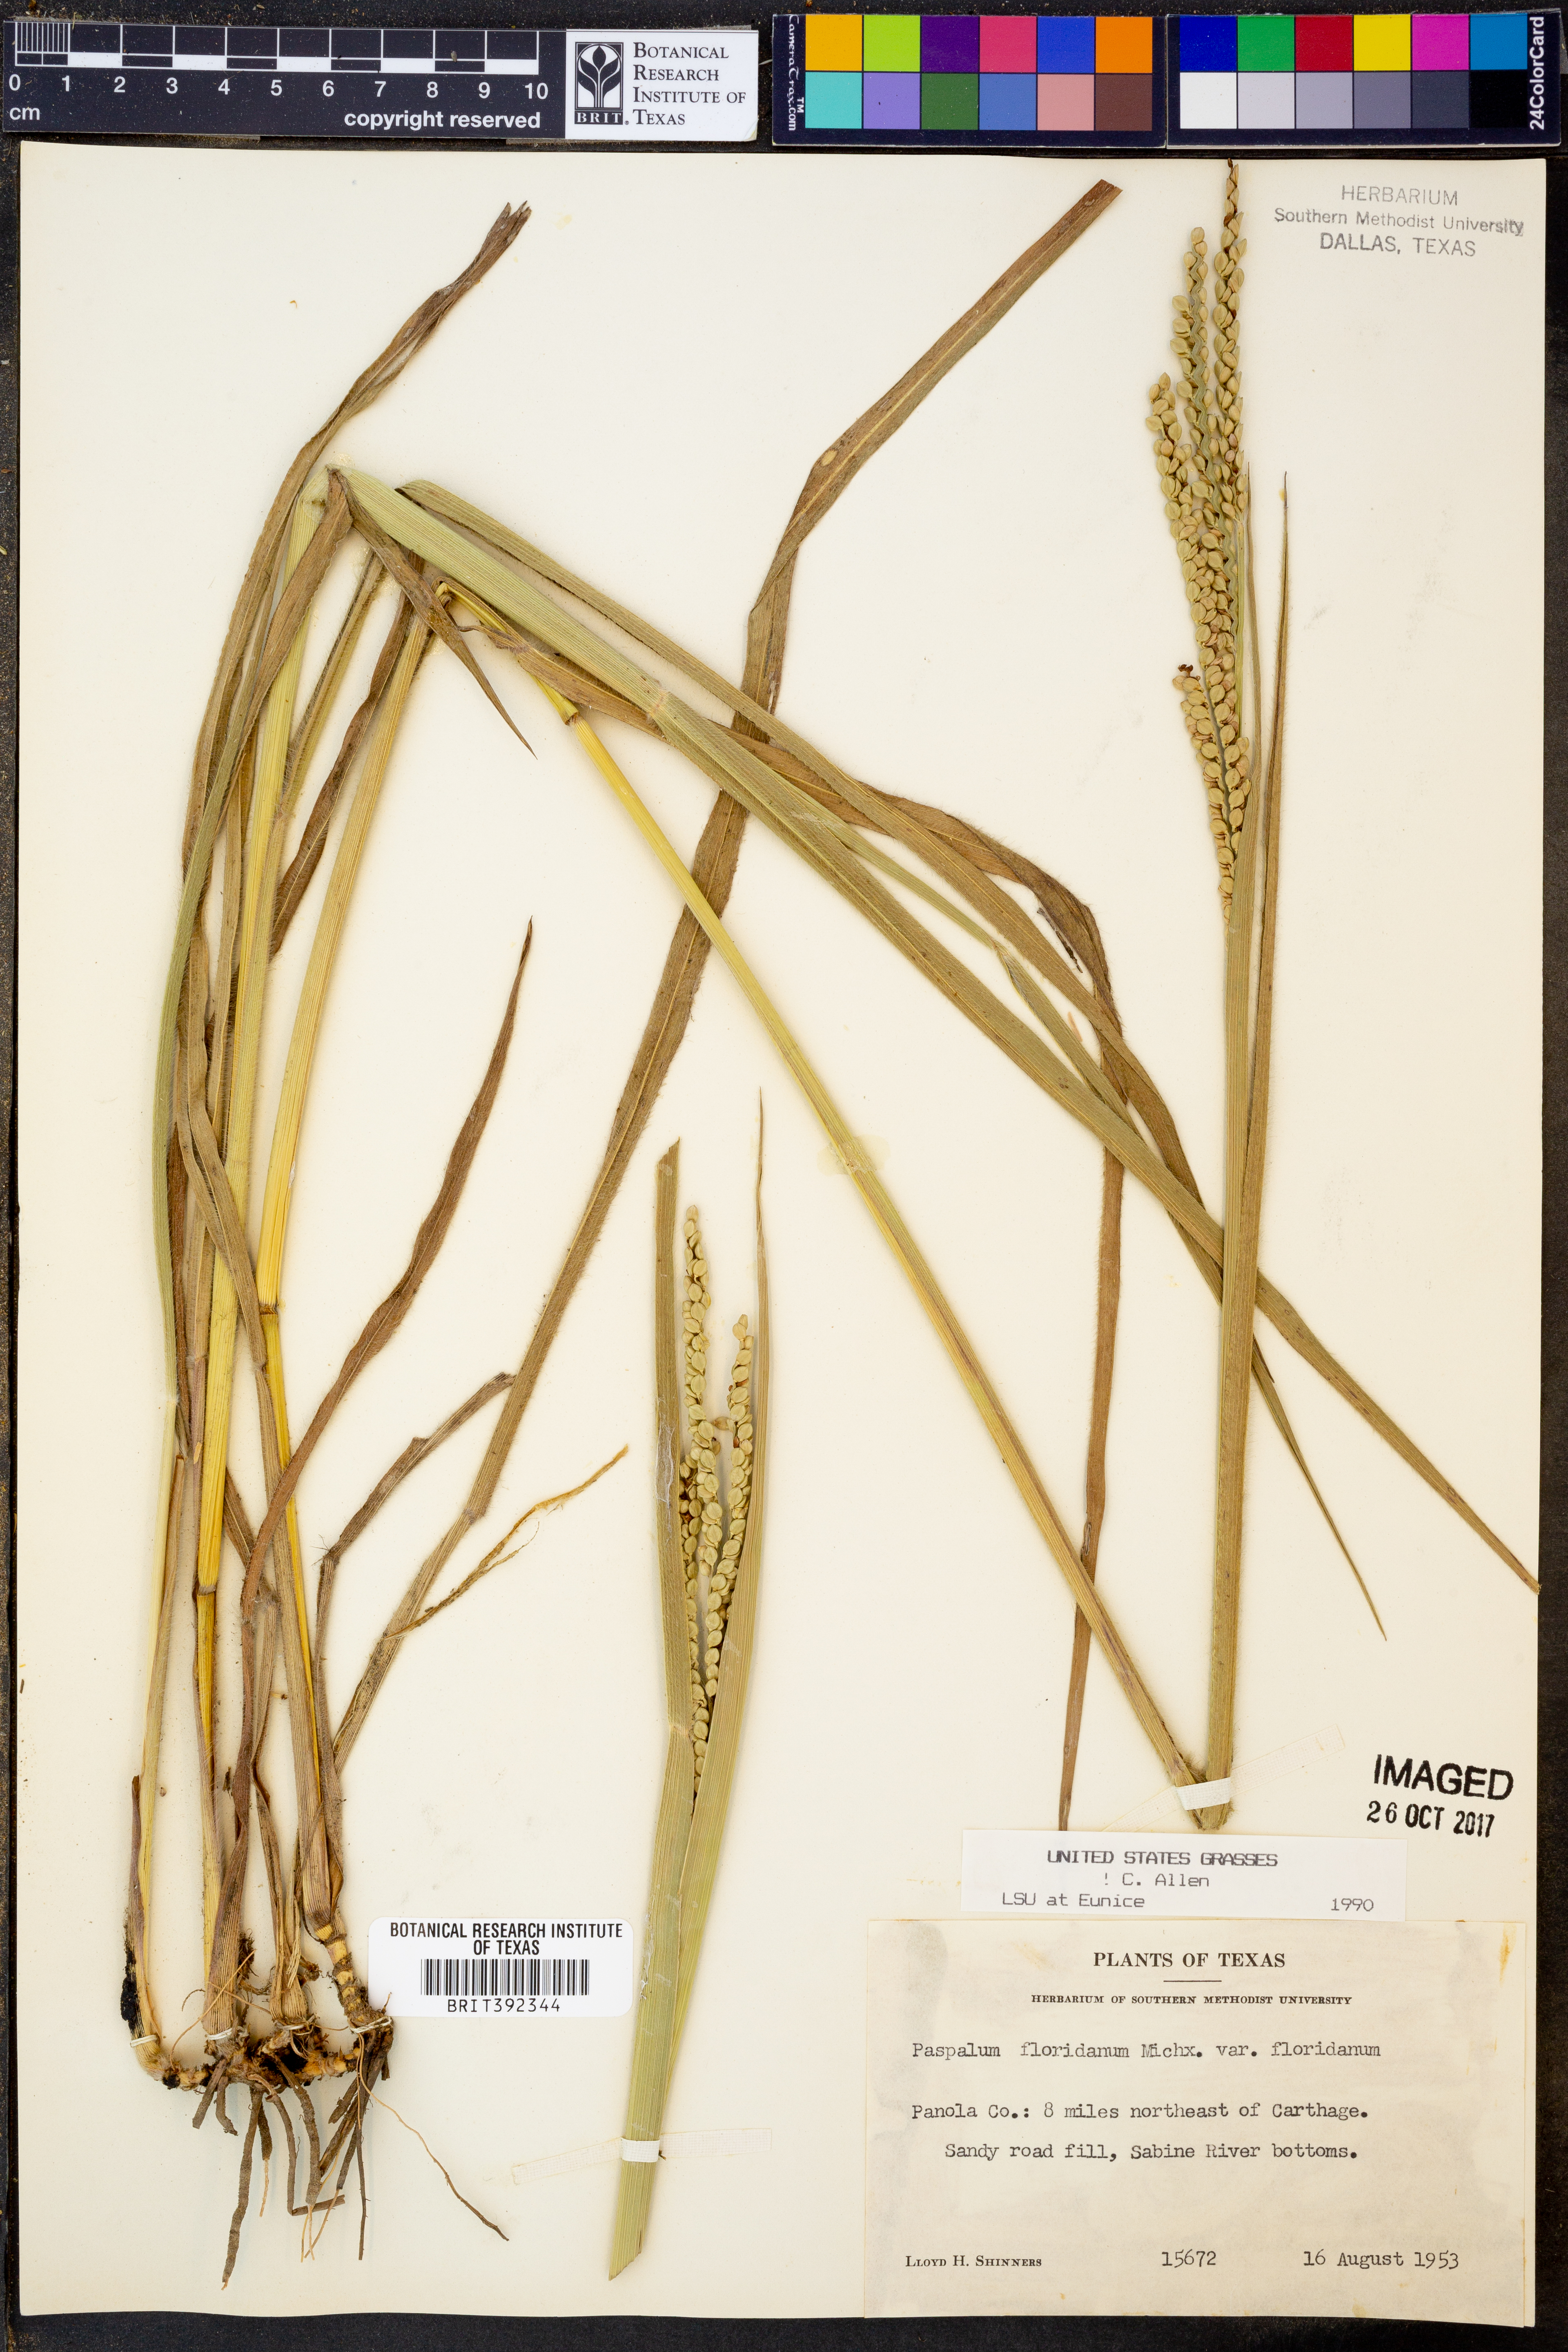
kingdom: Plantae
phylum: Tracheophyta
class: Liliopsida
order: Poales
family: Poaceae
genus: Paspalum
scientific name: Paspalum floridanum
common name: Florida paspalum
